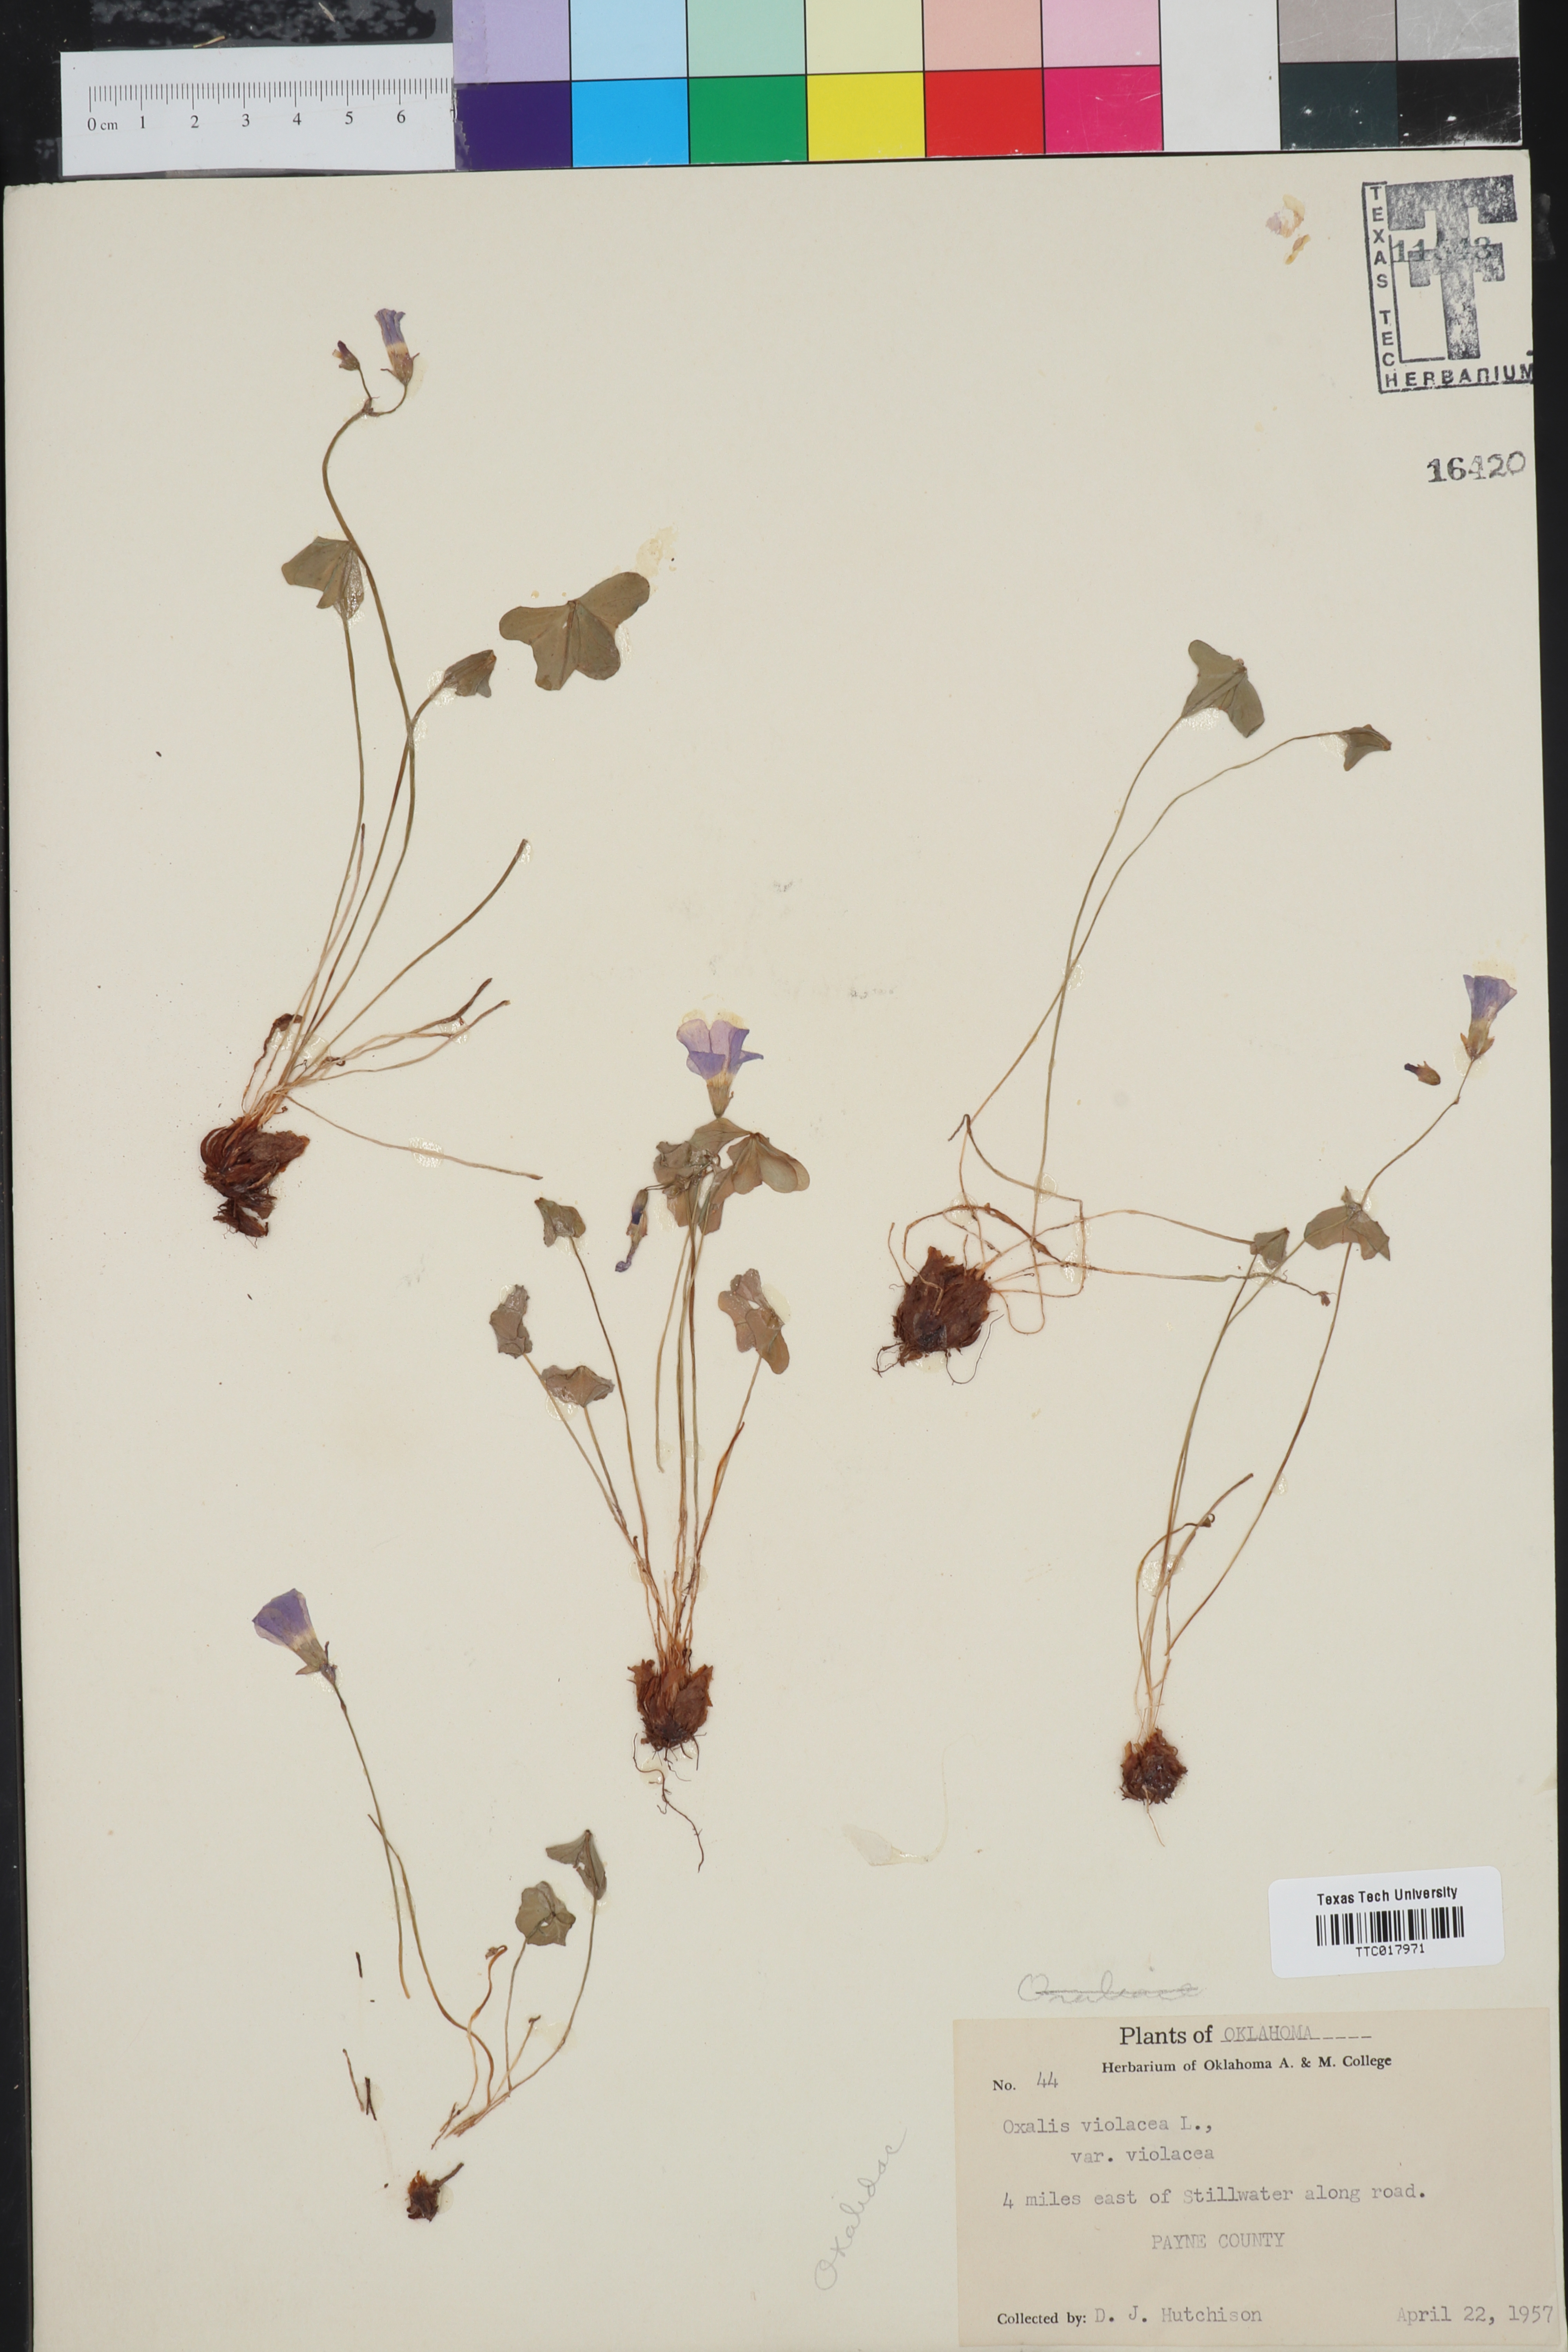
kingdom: Plantae
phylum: Tracheophyta
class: Magnoliopsida
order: Oxalidales
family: Oxalidaceae
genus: Oxalis
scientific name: Oxalis violacea
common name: Violet wood-sorrel
